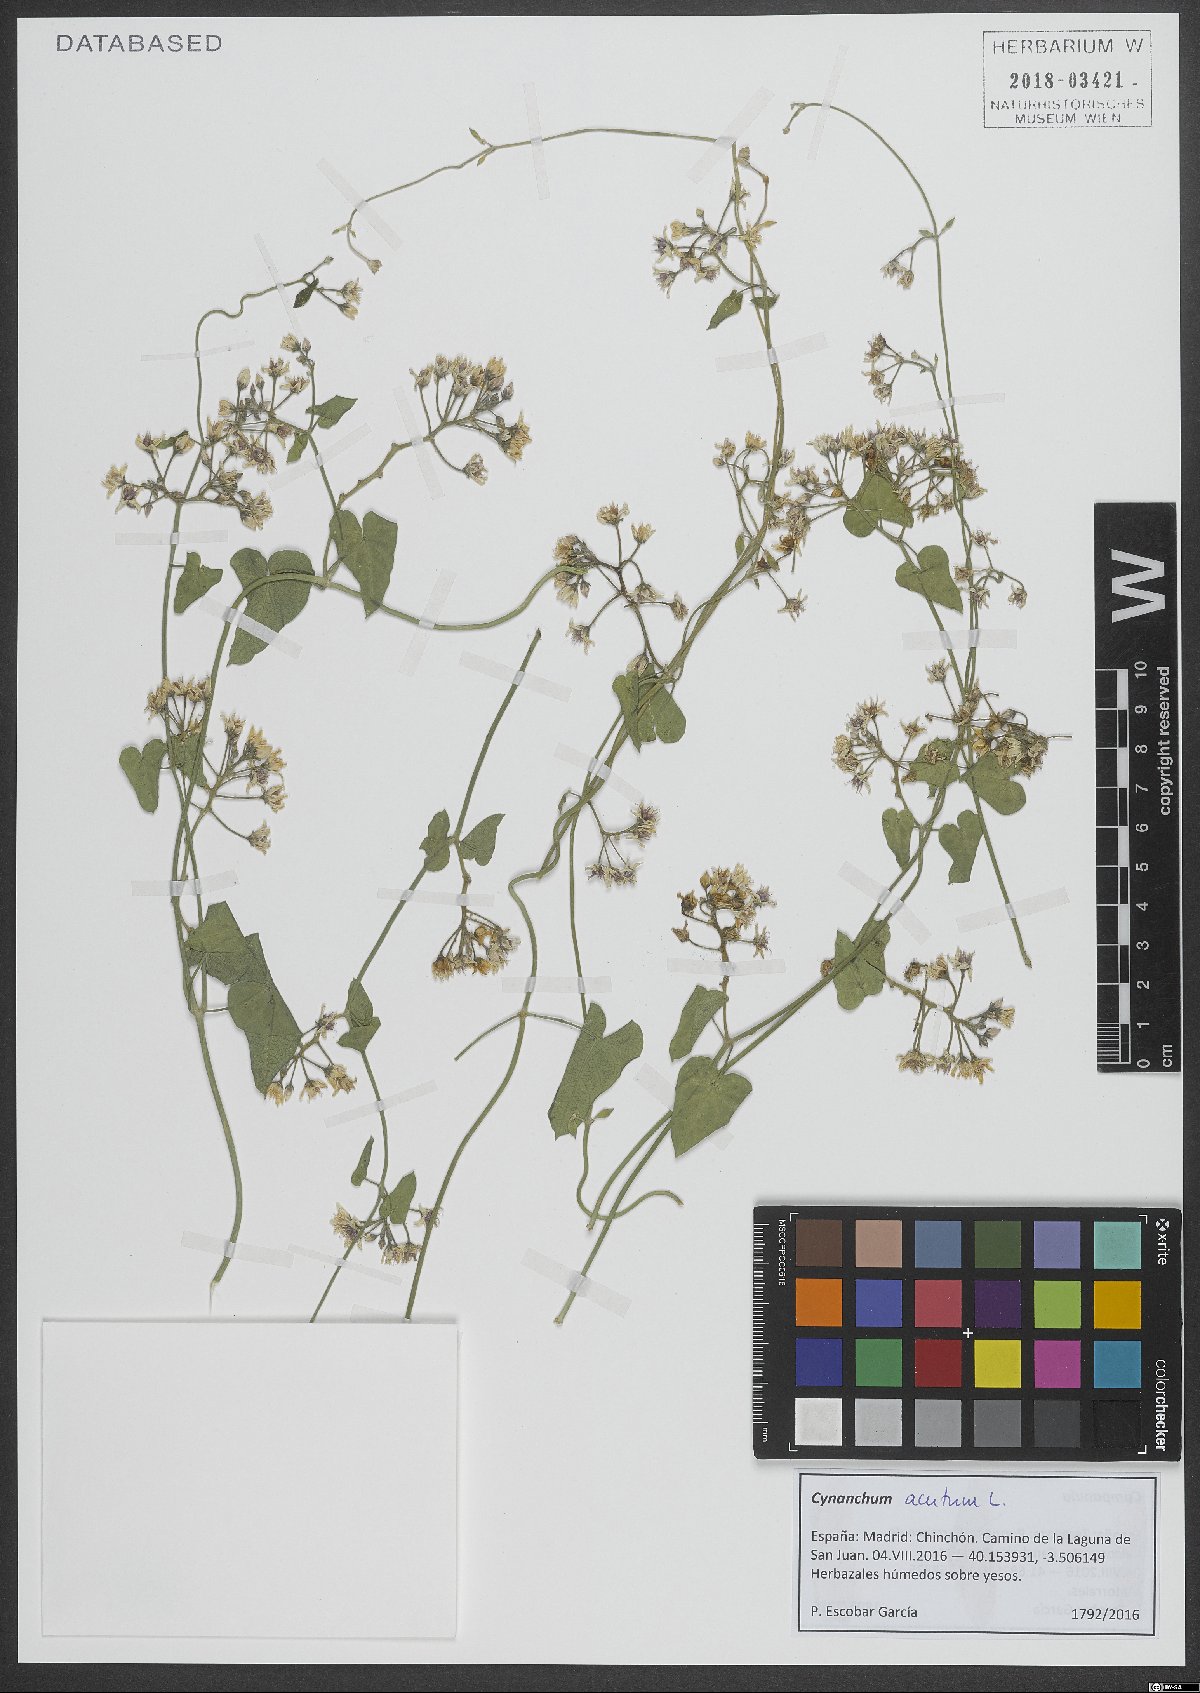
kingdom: Plantae
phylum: Tracheophyta
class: Magnoliopsida
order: Gentianales
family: Apocynaceae
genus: Cynanchum
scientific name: Cynanchum acutum
